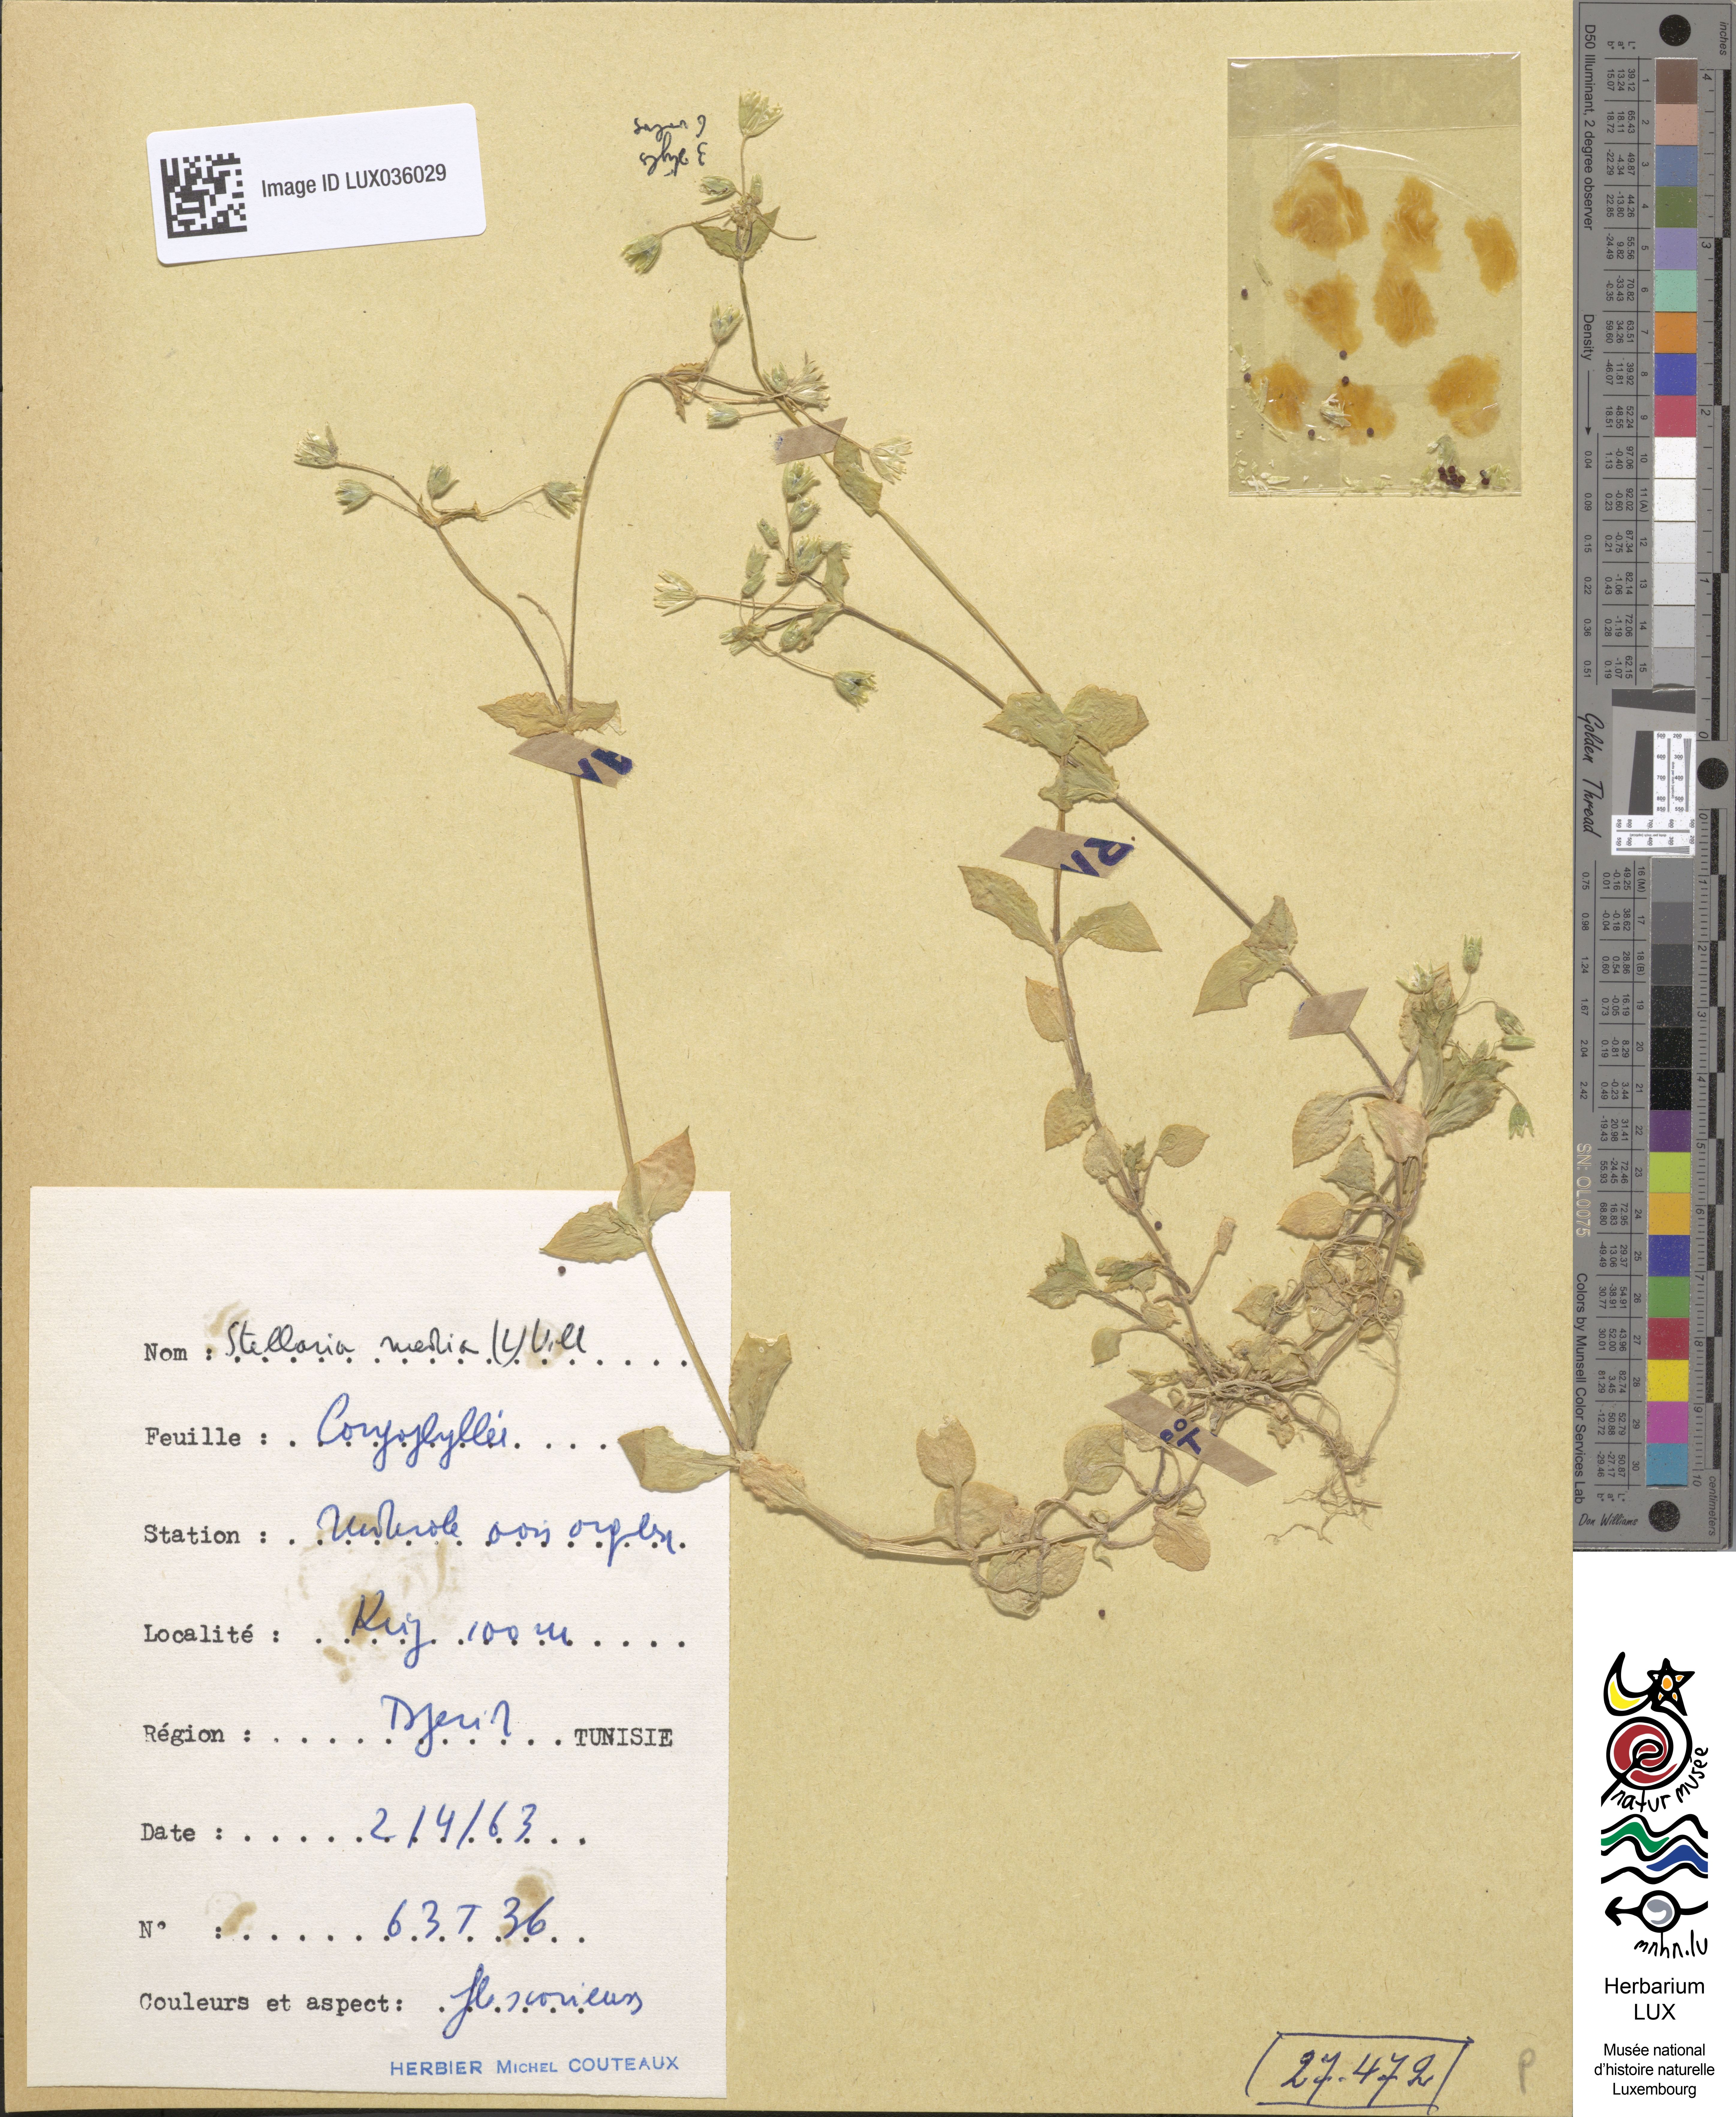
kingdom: Plantae
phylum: Tracheophyta
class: Magnoliopsida
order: Caryophyllales
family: Caryophyllaceae
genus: Stellaria
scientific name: Stellaria media
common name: Common chickweed
